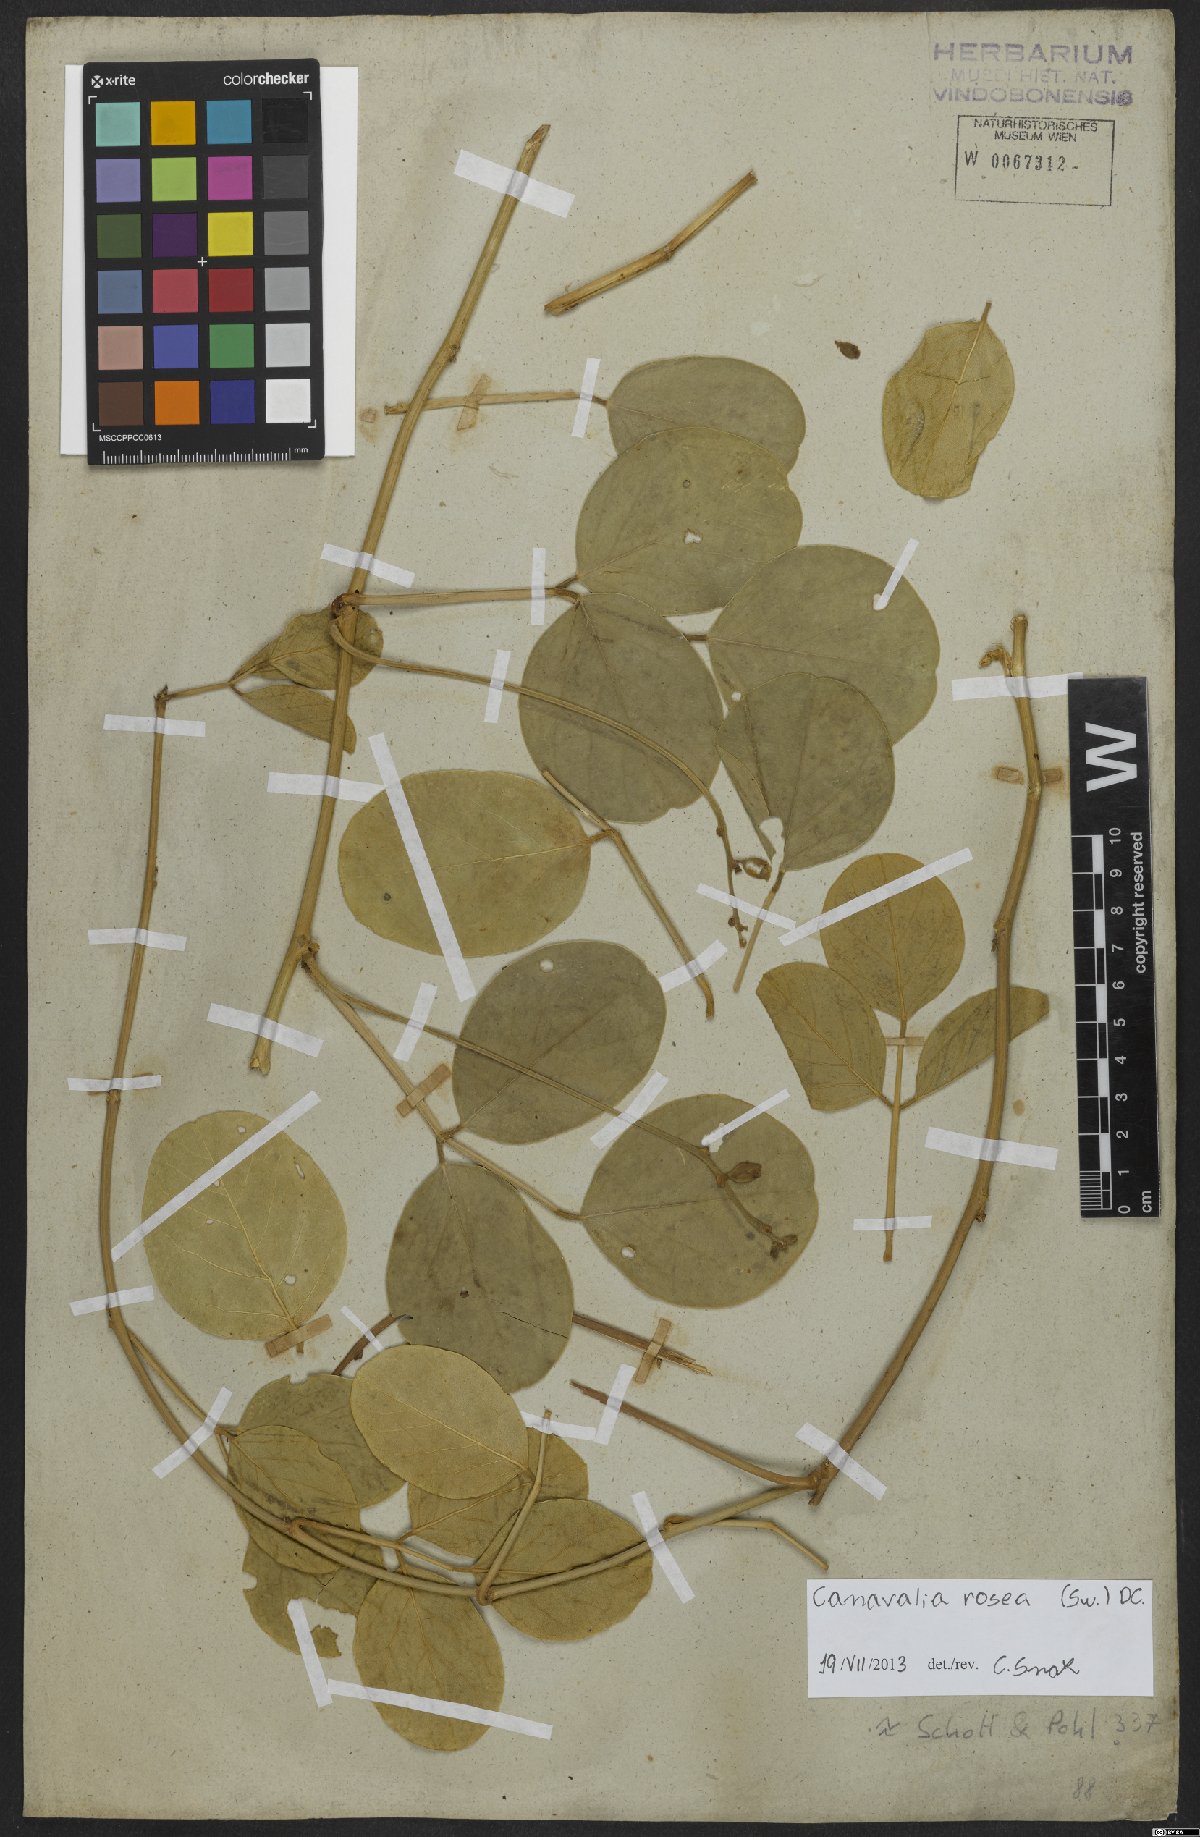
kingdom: Plantae
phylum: Tracheophyta
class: Magnoliopsida
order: Fabales
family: Fabaceae
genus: Canavalia
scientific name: Canavalia rosea
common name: Beach-bean
